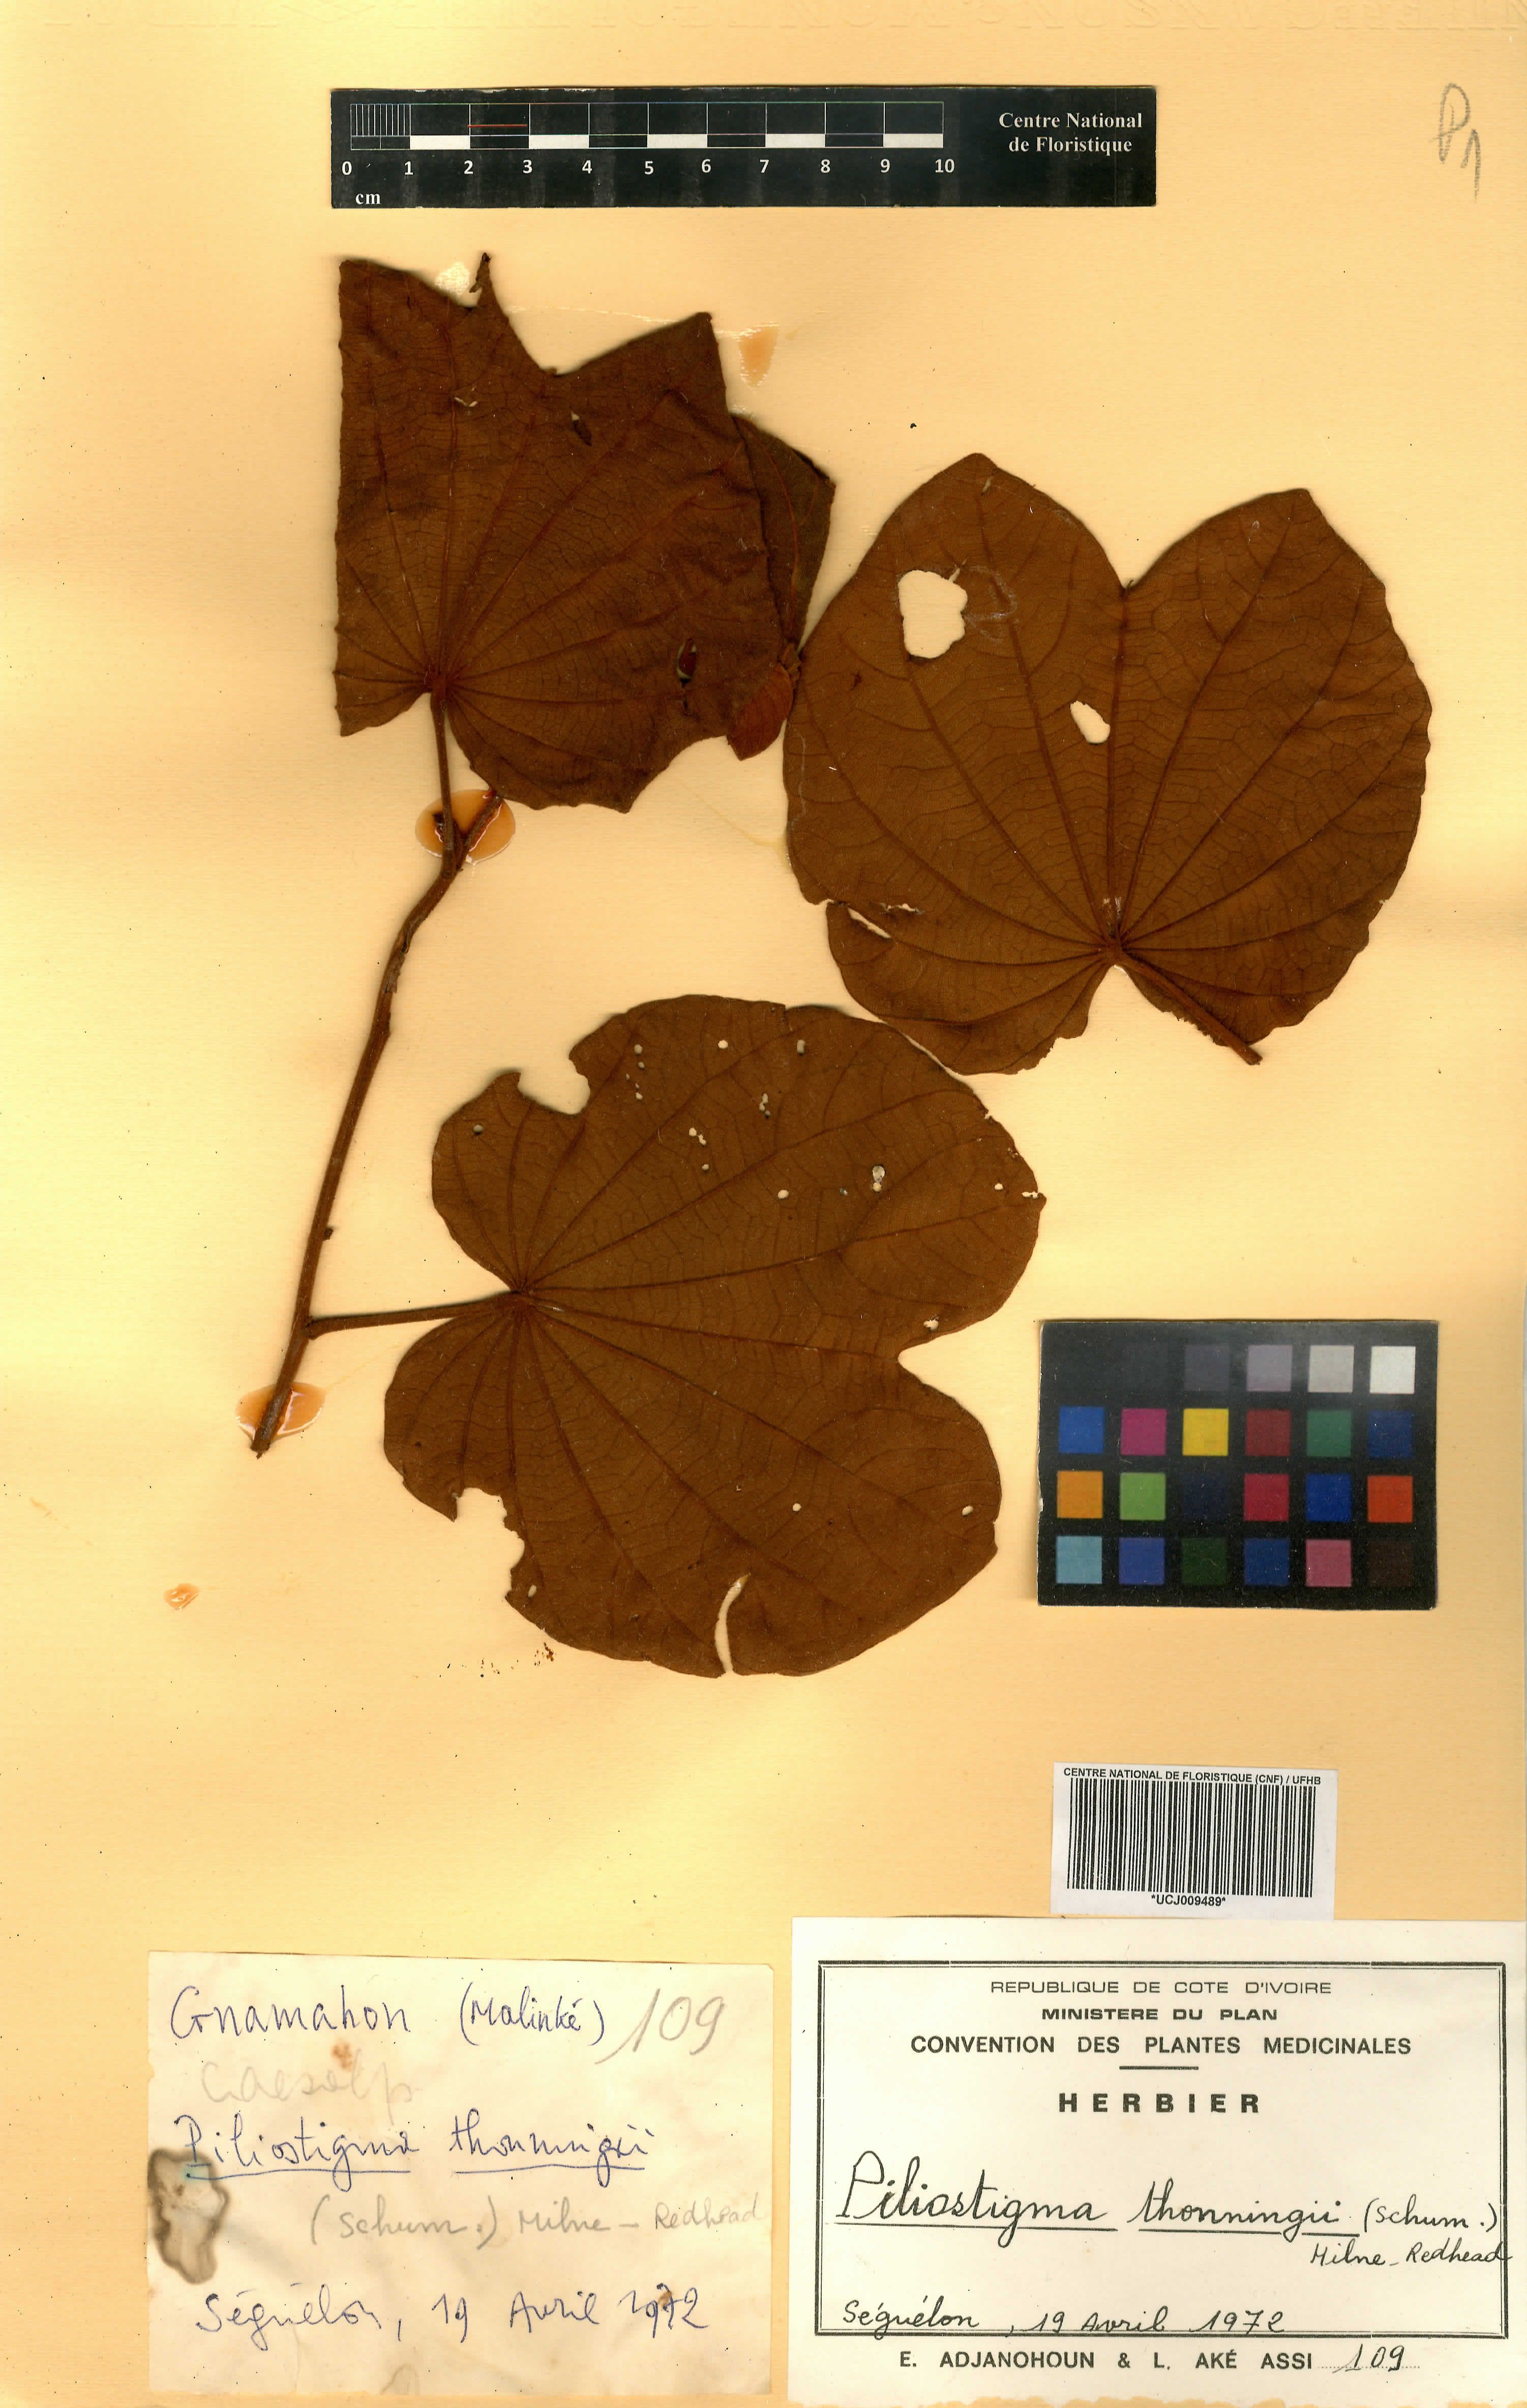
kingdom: Plantae
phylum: Tracheophyta
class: Magnoliopsida
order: Fabales
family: Fabaceae
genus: Piliostigma
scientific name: Piliostigma thonningii
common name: Kao
